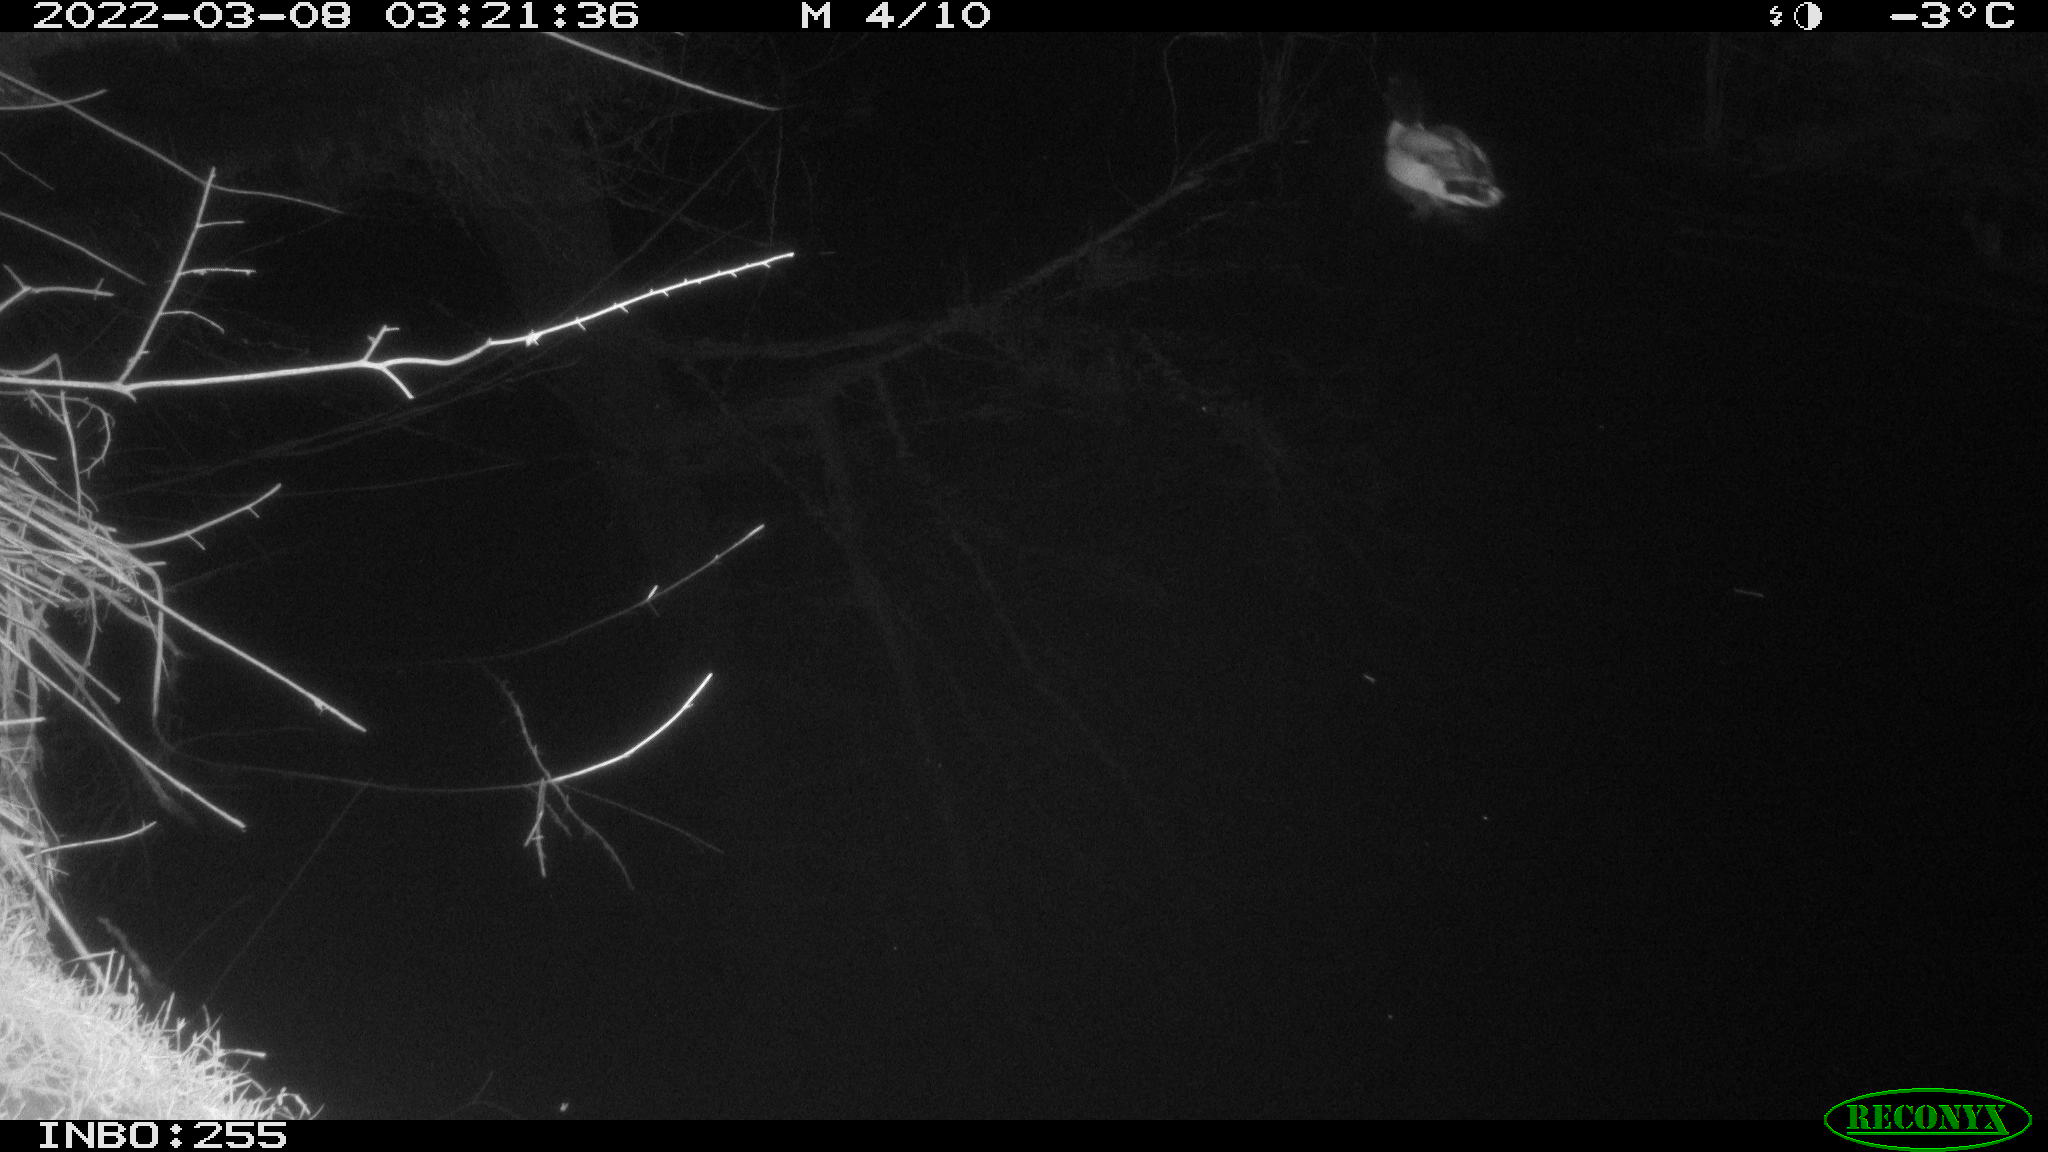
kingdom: Animalia
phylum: Chordata
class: Aves
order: Anseriformes
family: Anatidae
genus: Anas
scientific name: Anas platyrhynchos
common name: Mallard
